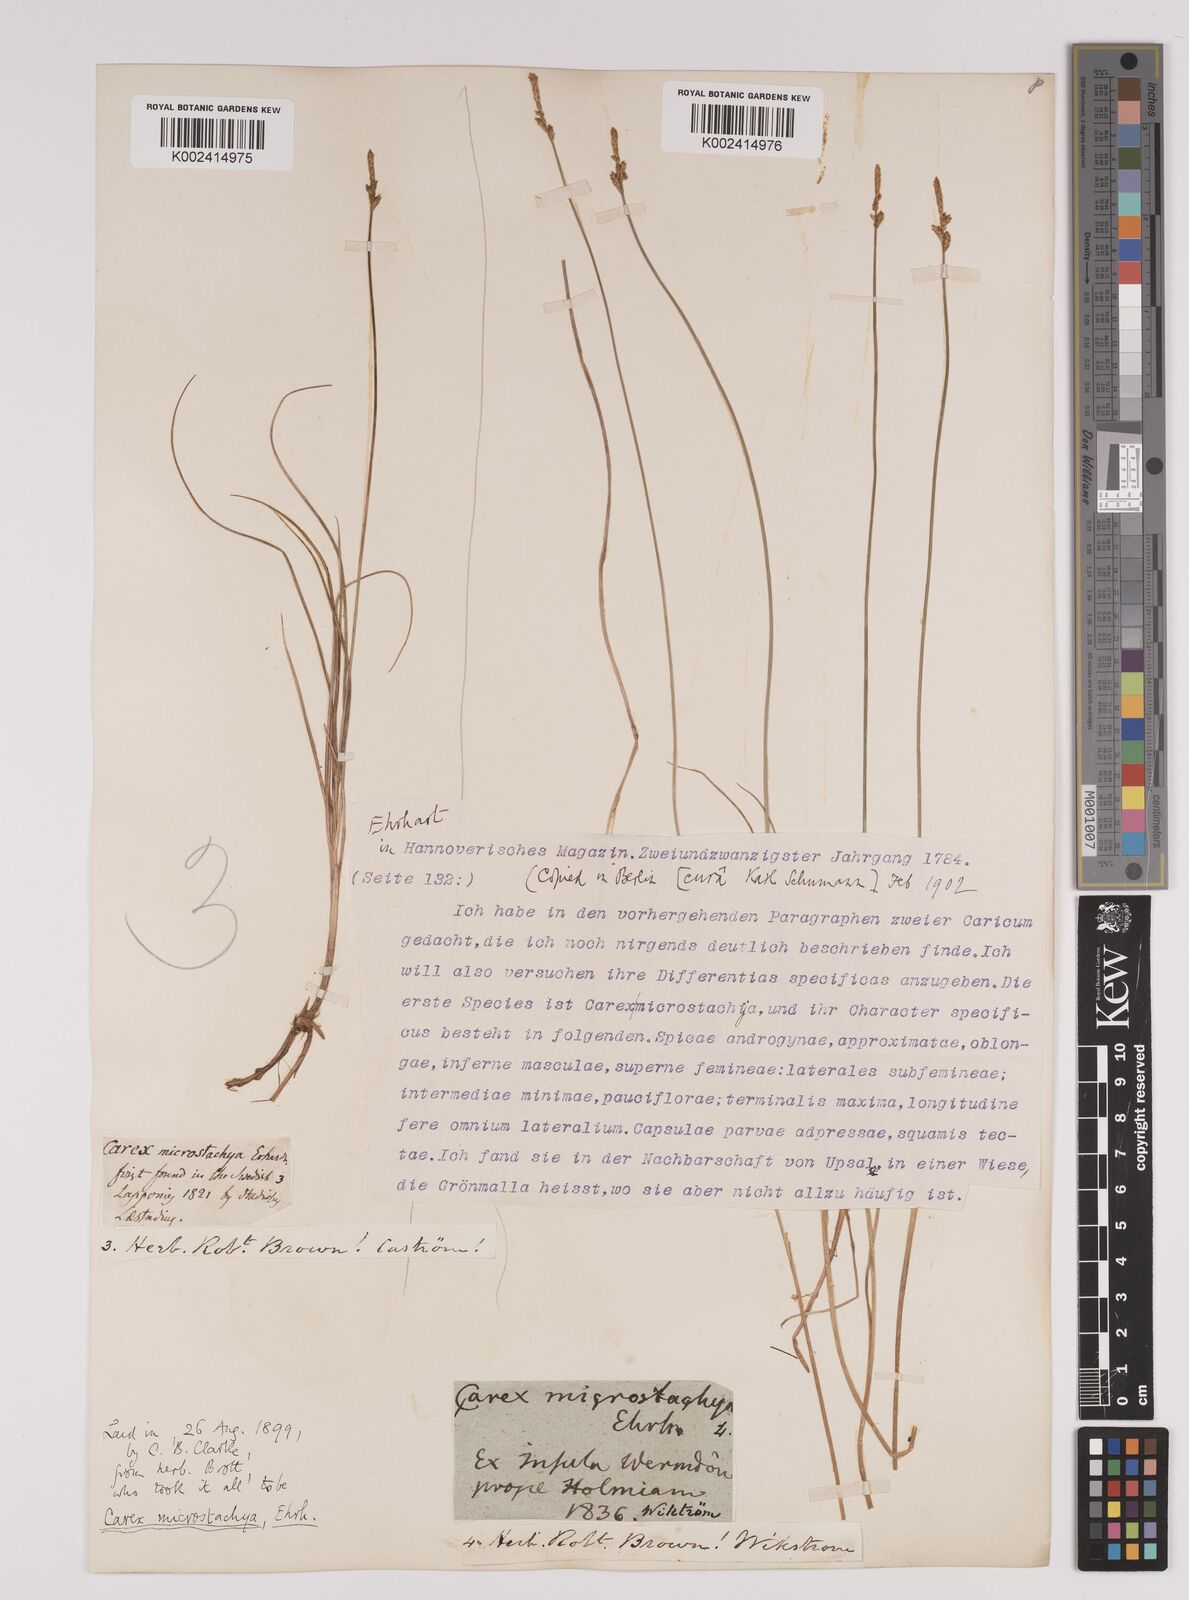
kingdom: Plantae
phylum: Tracheophyta
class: Liliopsida
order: Poales
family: Cyperaceae
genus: Carex
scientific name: Carex dioica
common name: Dioecious sedge
